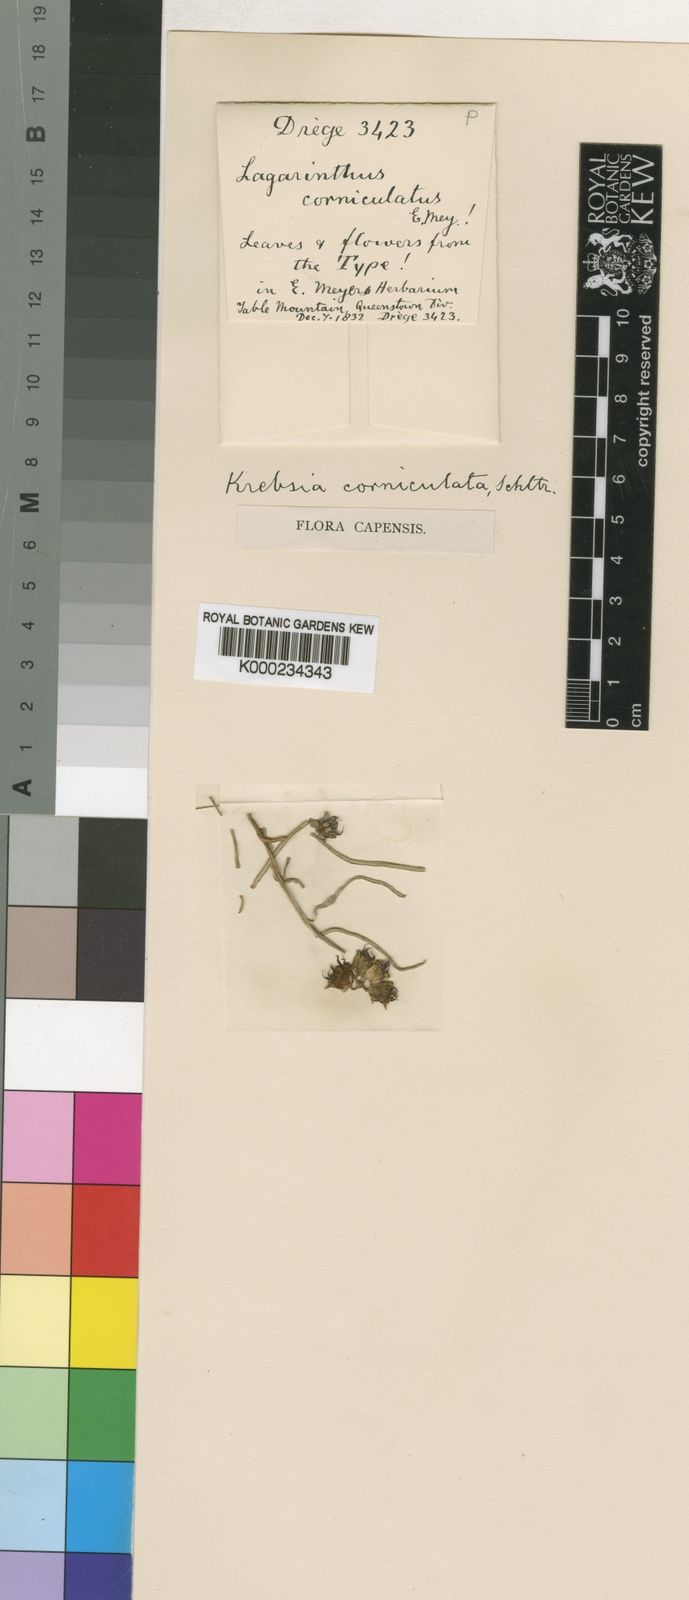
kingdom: Plantae
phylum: Tracheophyta
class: Magnoliopsida
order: Gentianales
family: Apocynaceae
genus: Stenostelma
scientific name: Stenostelma corniculatum
